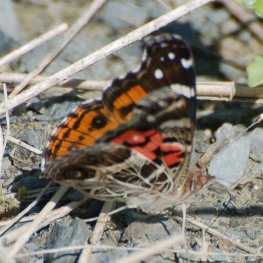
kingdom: Animalia
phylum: Arthropoda
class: Insecta
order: Lepidoptera
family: Nymphalidae
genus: Vanessa
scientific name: Vanessa virginiensis
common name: American Lady
